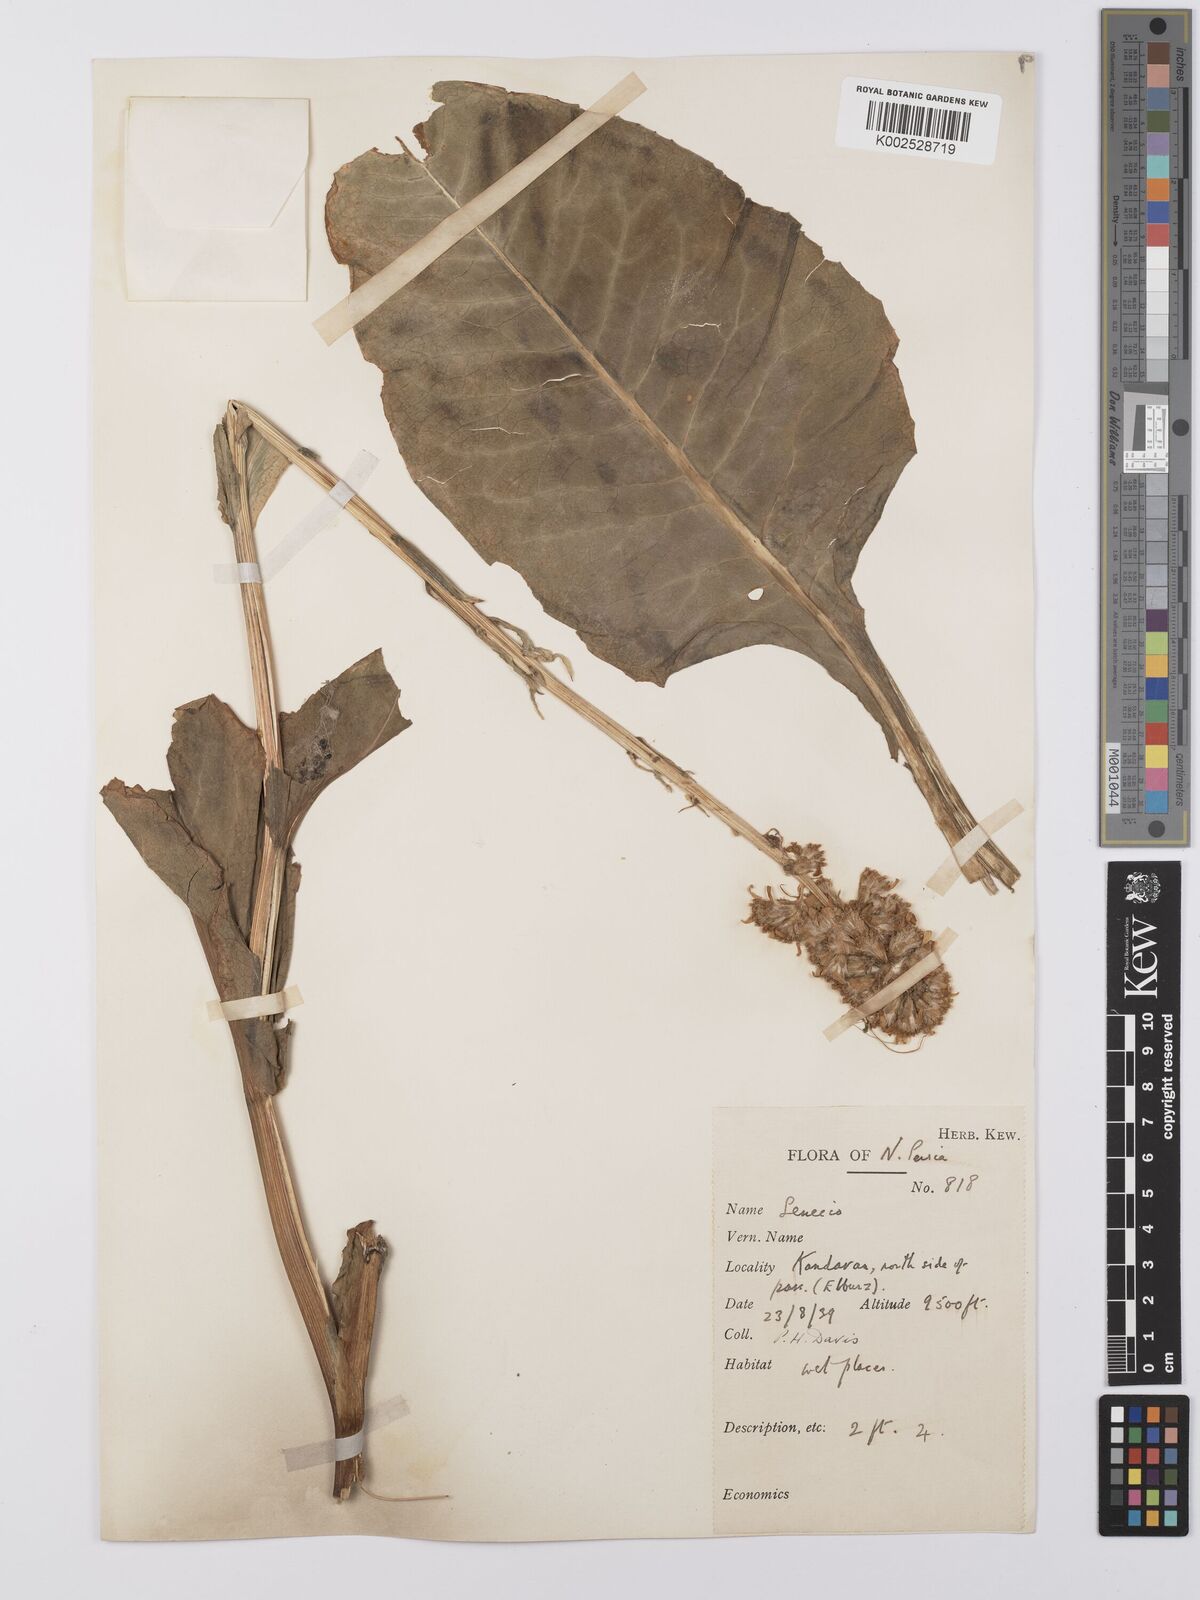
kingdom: Plantae
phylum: Tracheophyta
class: Magnoliopsida
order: Asterales
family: Asteraceae
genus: Dolichorrhiza
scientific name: Dolichorrhiza persica
